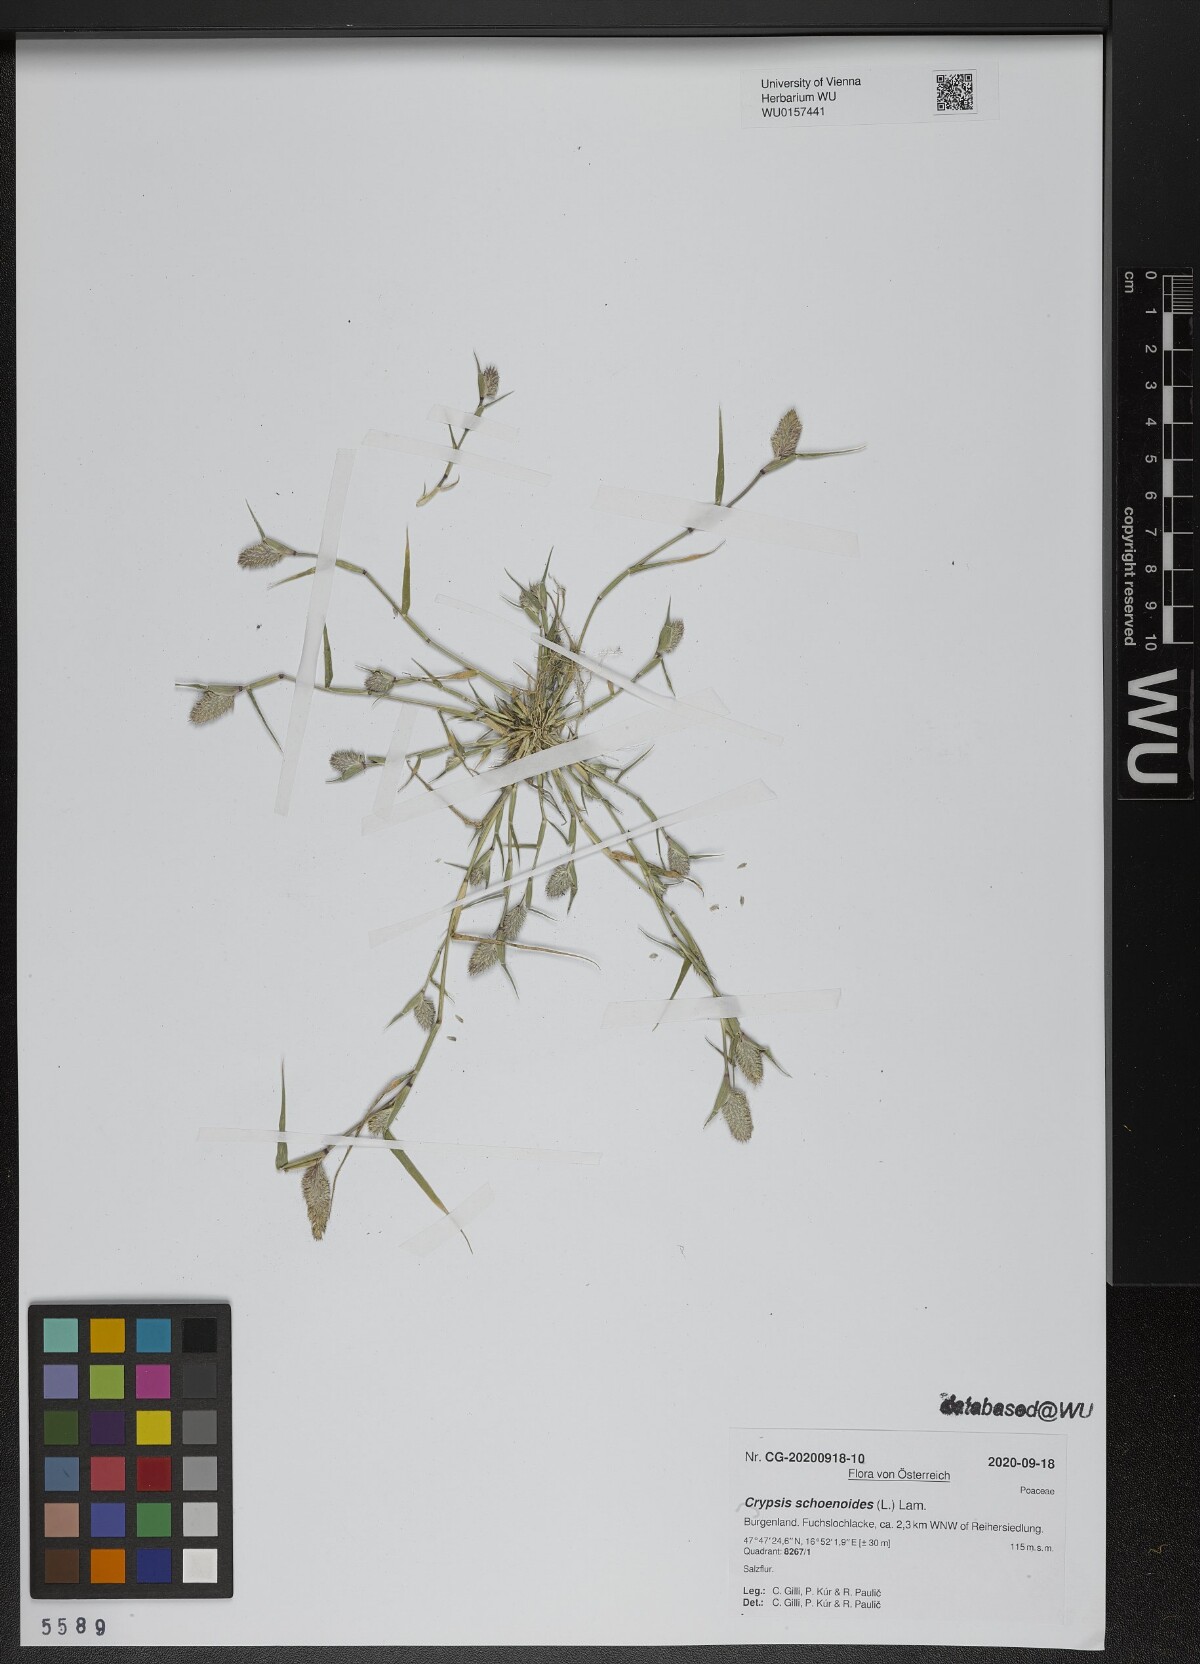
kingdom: Plantae
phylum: Tracheophyta
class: Liliopsida
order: Poales
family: Poaceae
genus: Sporobolus
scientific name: Sporobolus schoenoides
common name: Rush-like timothy
